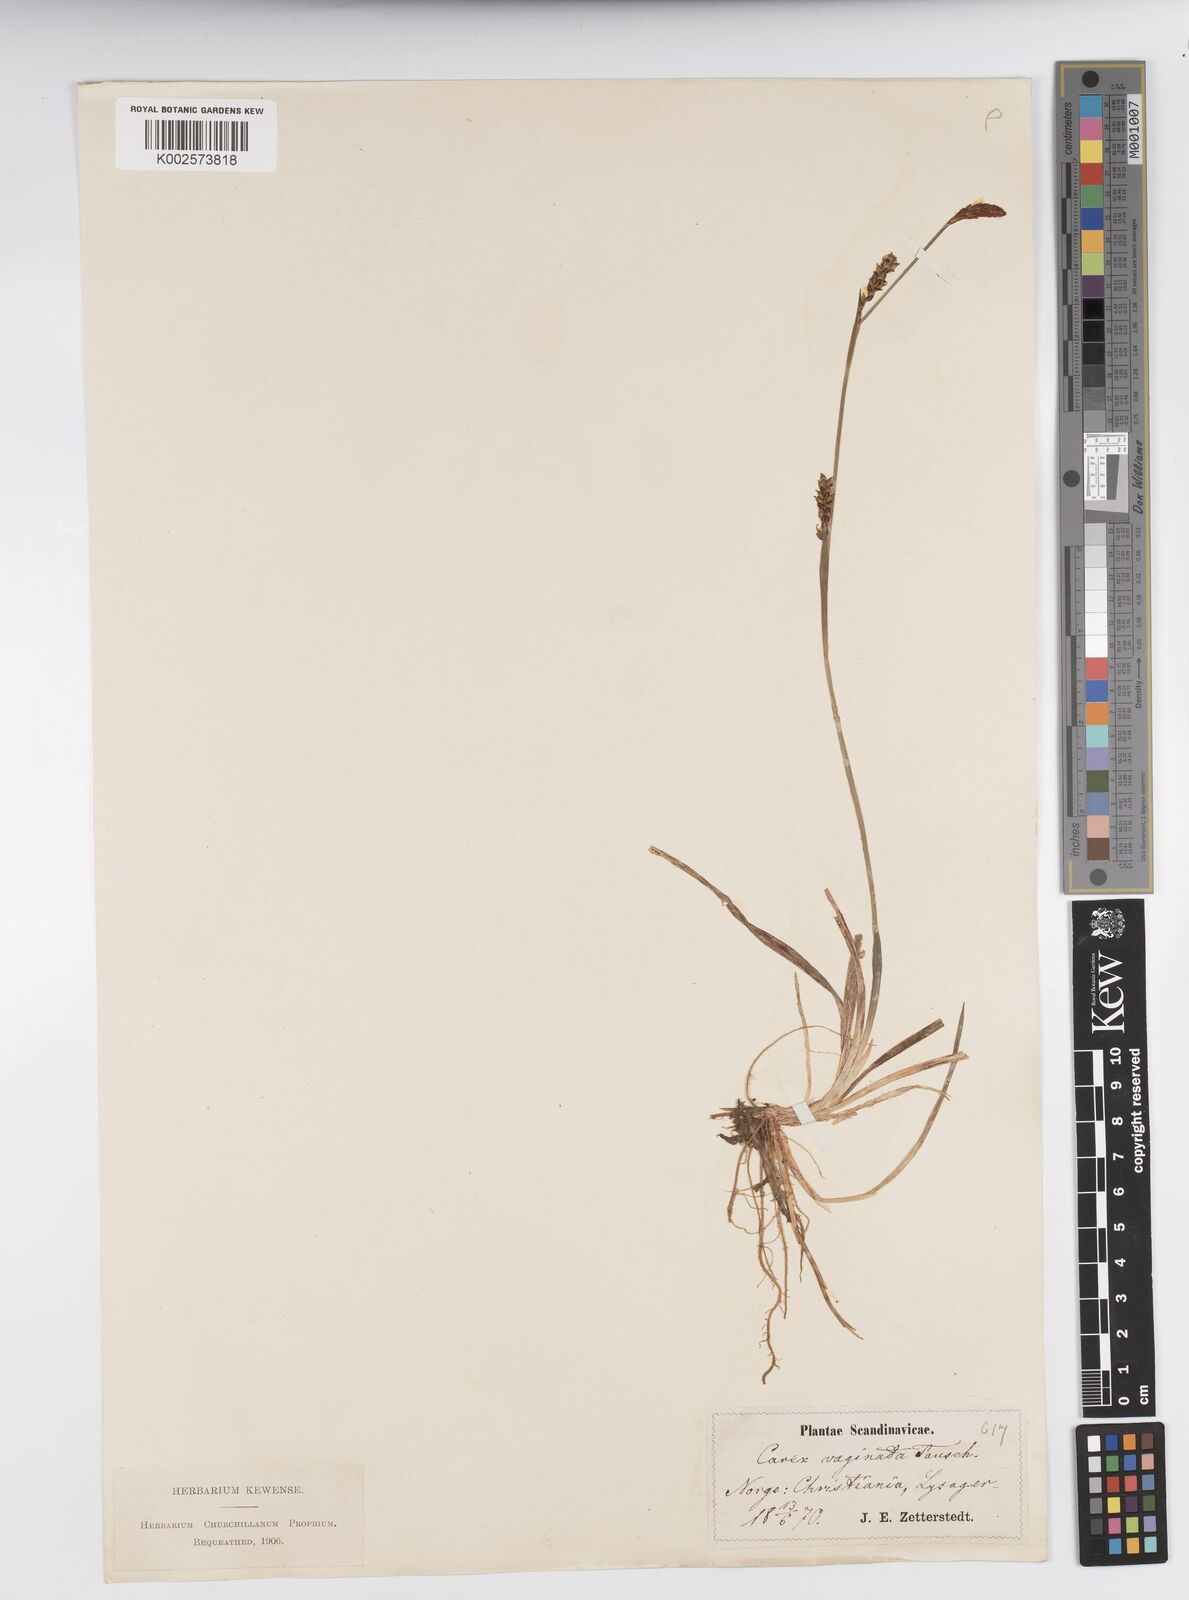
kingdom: Plantae
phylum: Tracheophyta
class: Liliopsida
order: Poales
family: Cyperaceae
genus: Carex
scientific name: Carex vaginata
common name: Sheathed sedge
